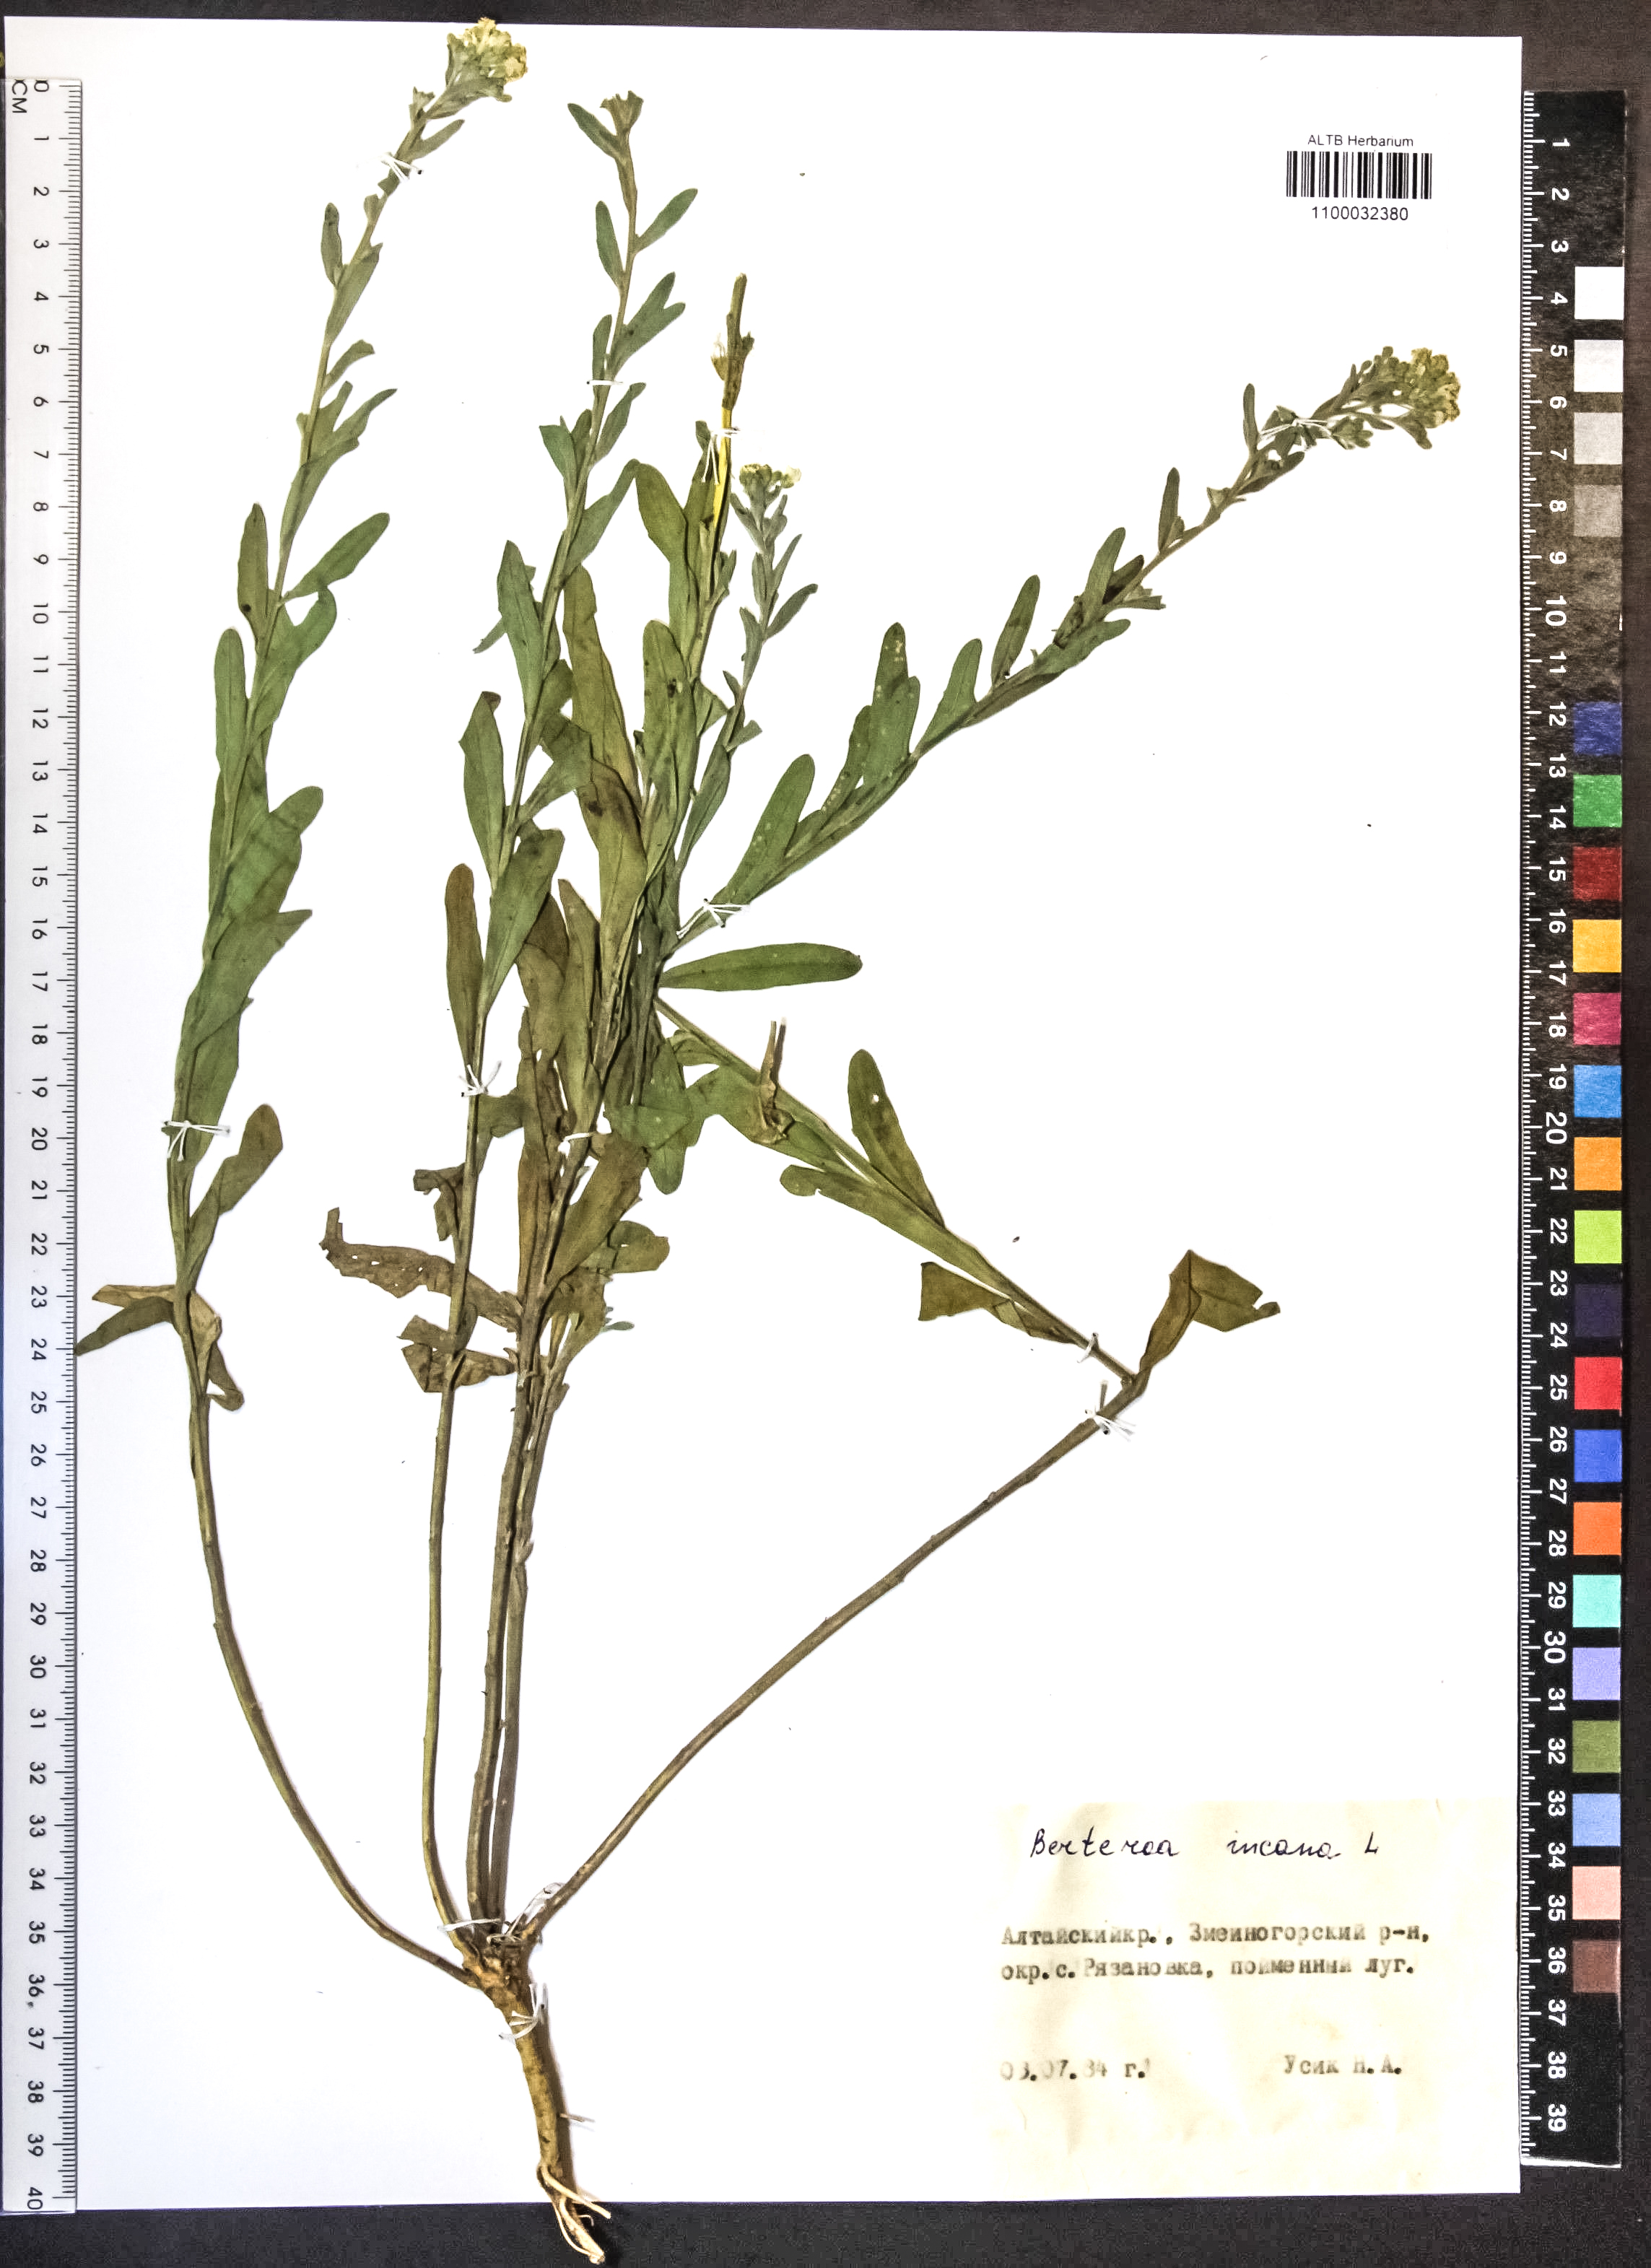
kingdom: Plantae
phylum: Tracheophyta
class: Magnoliopsida
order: Brassicales
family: Brassicaceae
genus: Berteroa
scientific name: Berteroa incana
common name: Hoary alison
